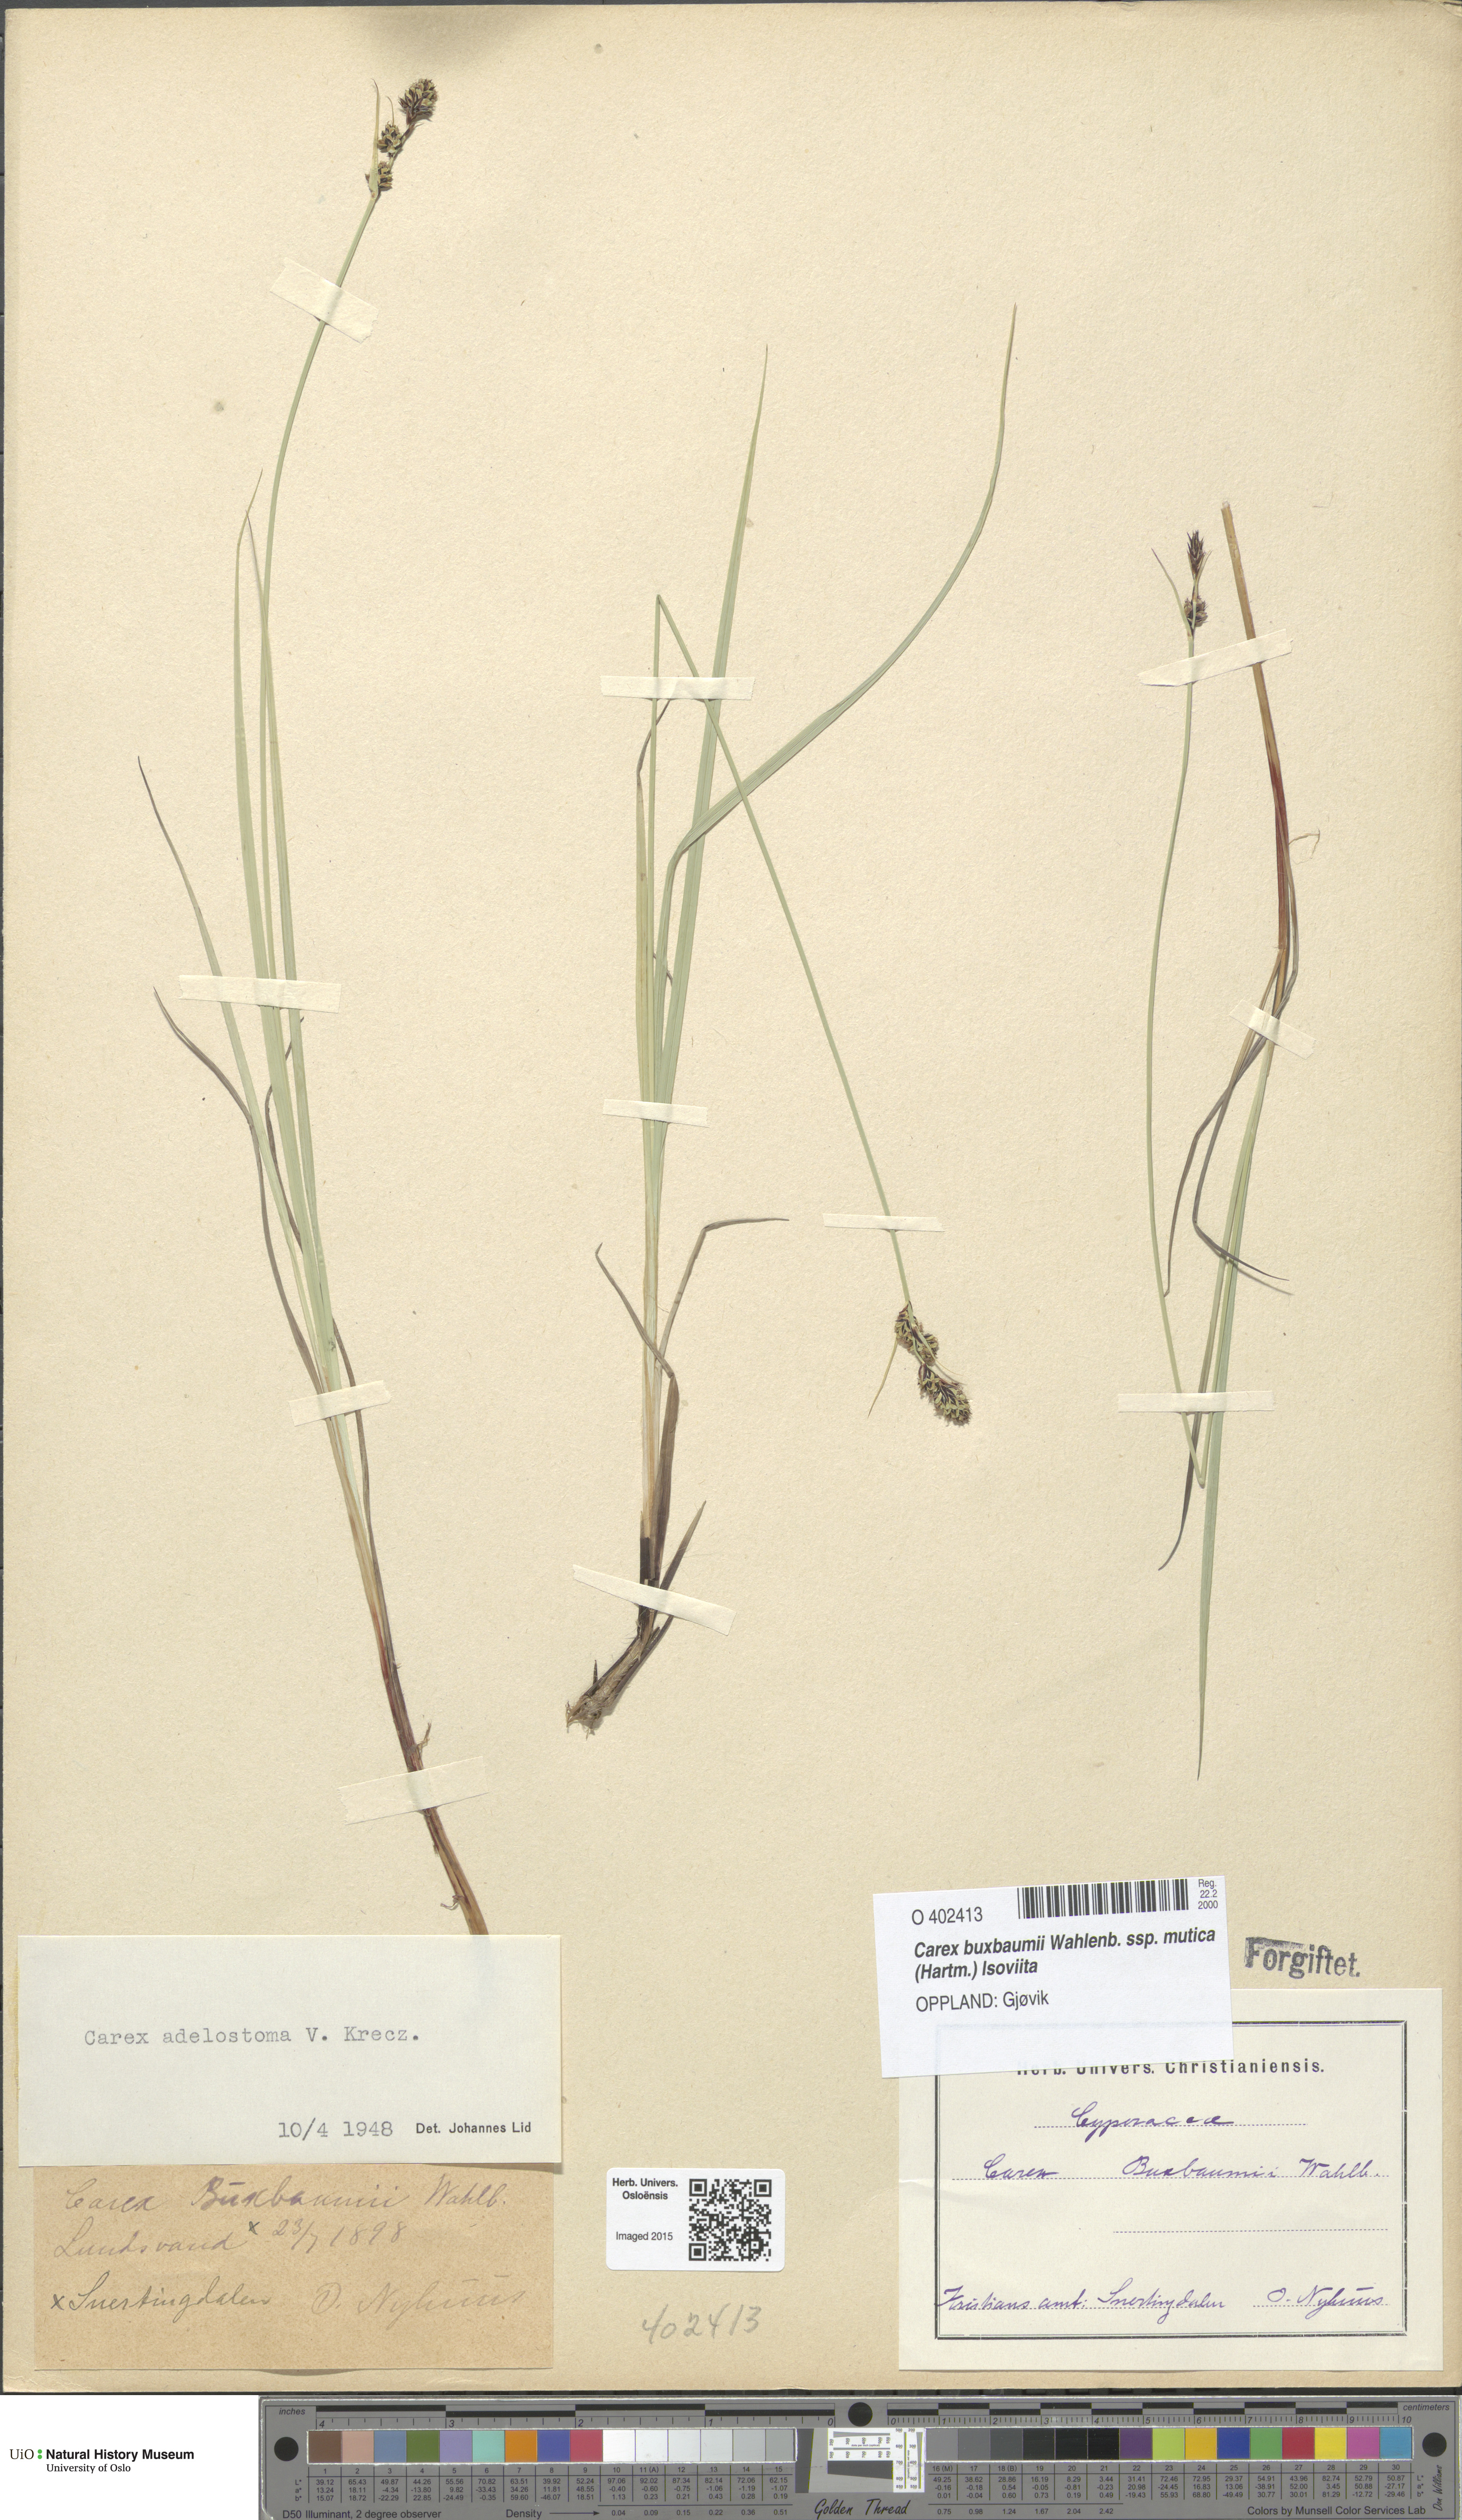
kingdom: Plantae
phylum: Tracheophyta
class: Liliopsida
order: Poales
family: Cyperaceae
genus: Carex
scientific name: Carex adelostoma
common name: Circumpolar sedge
